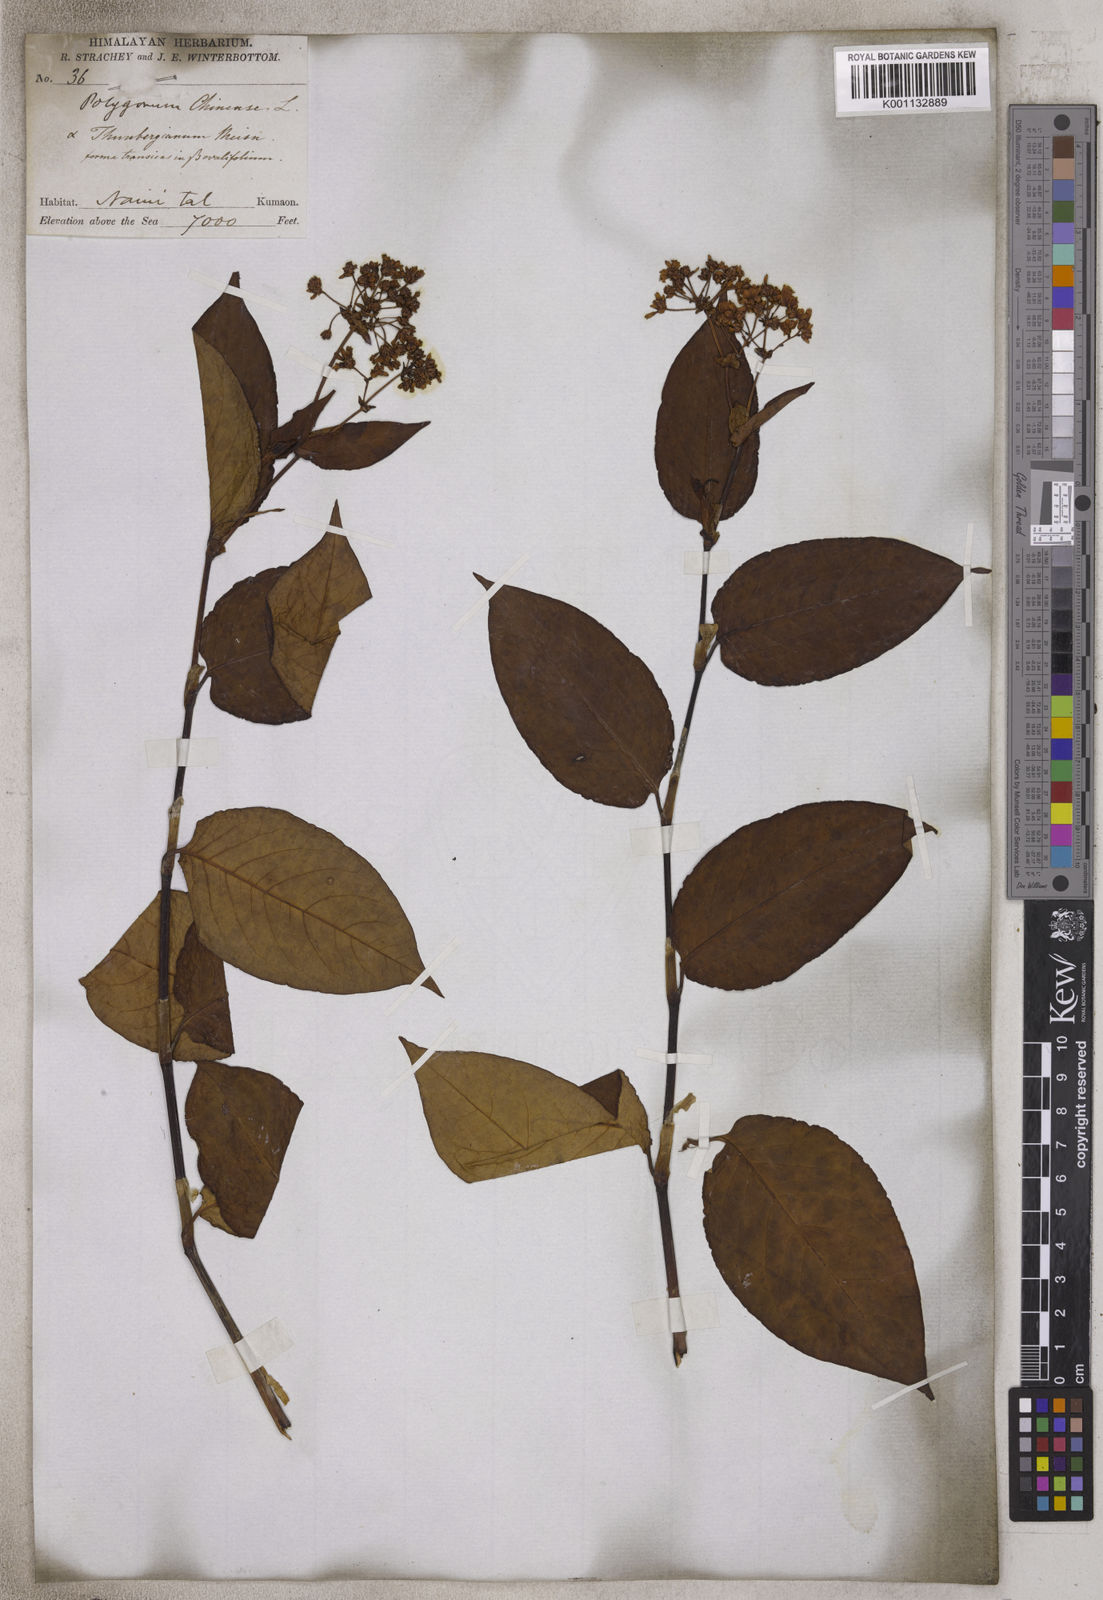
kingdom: Plantae
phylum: Tracheophyta
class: Magnoliopsida
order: Caryophyllales
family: Polygonaceae
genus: Persicaria
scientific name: Persicaria chinensis
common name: Chinese knotweed
